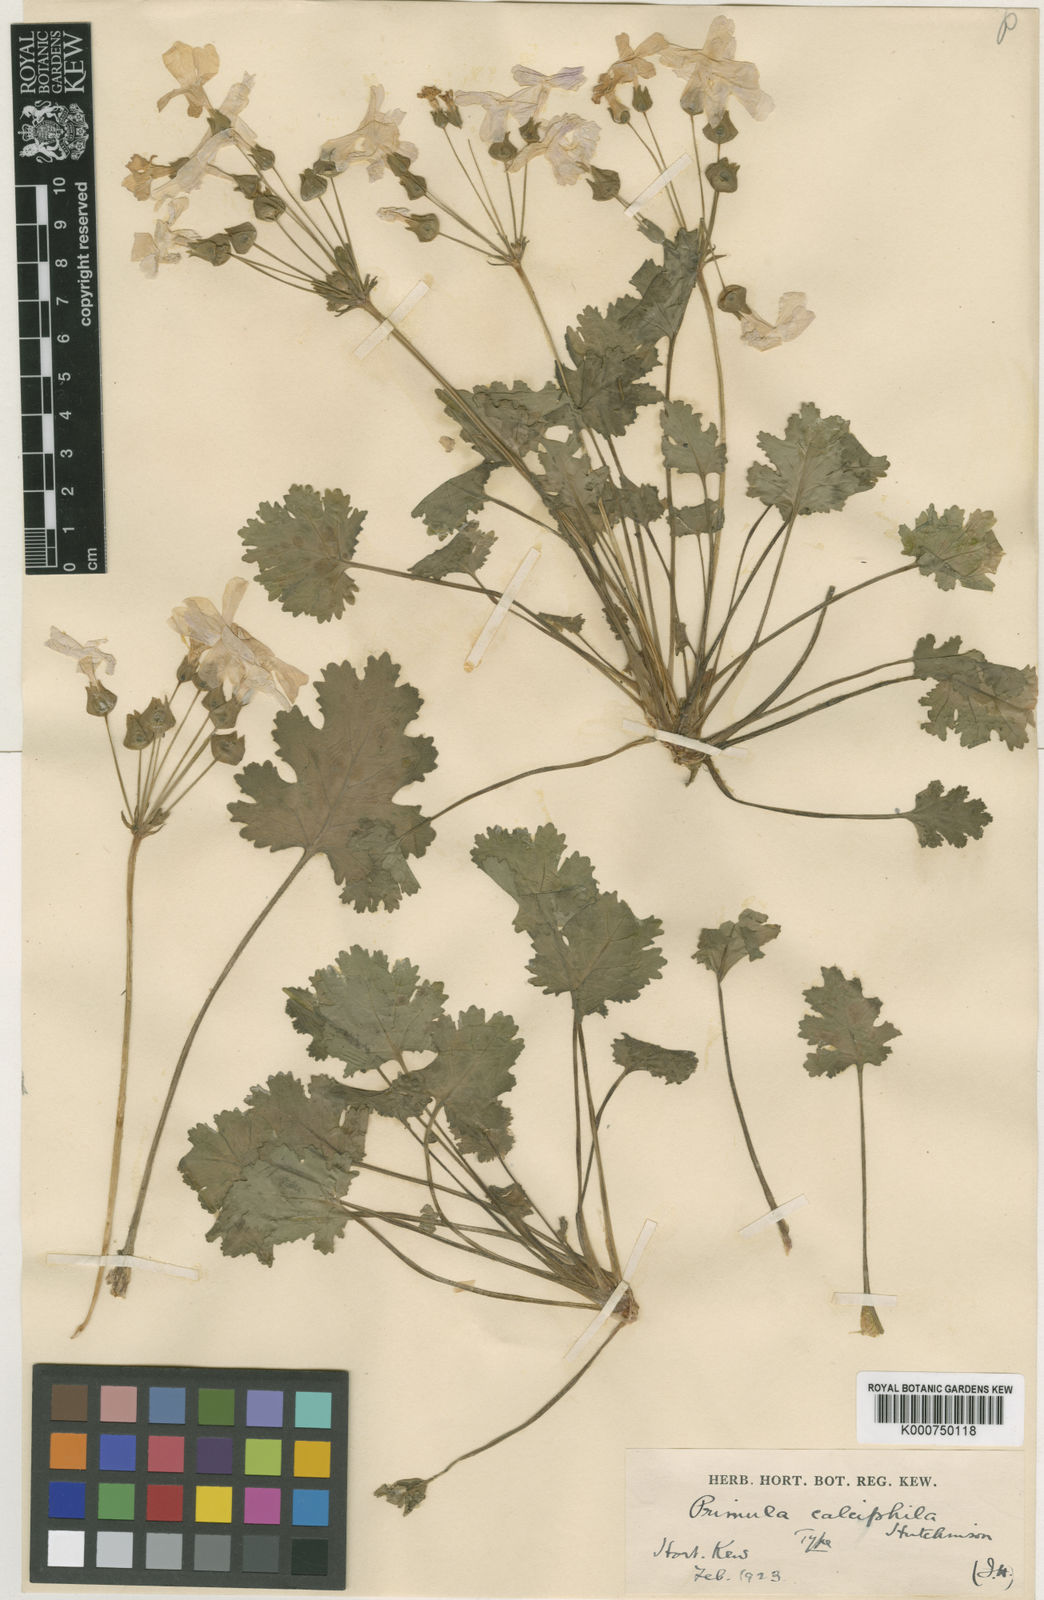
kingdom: Plantae
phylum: Tracheophyta
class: Magnoliopsida
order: Ericales
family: Primulaceae
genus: Primula
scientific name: Primula rupestris
